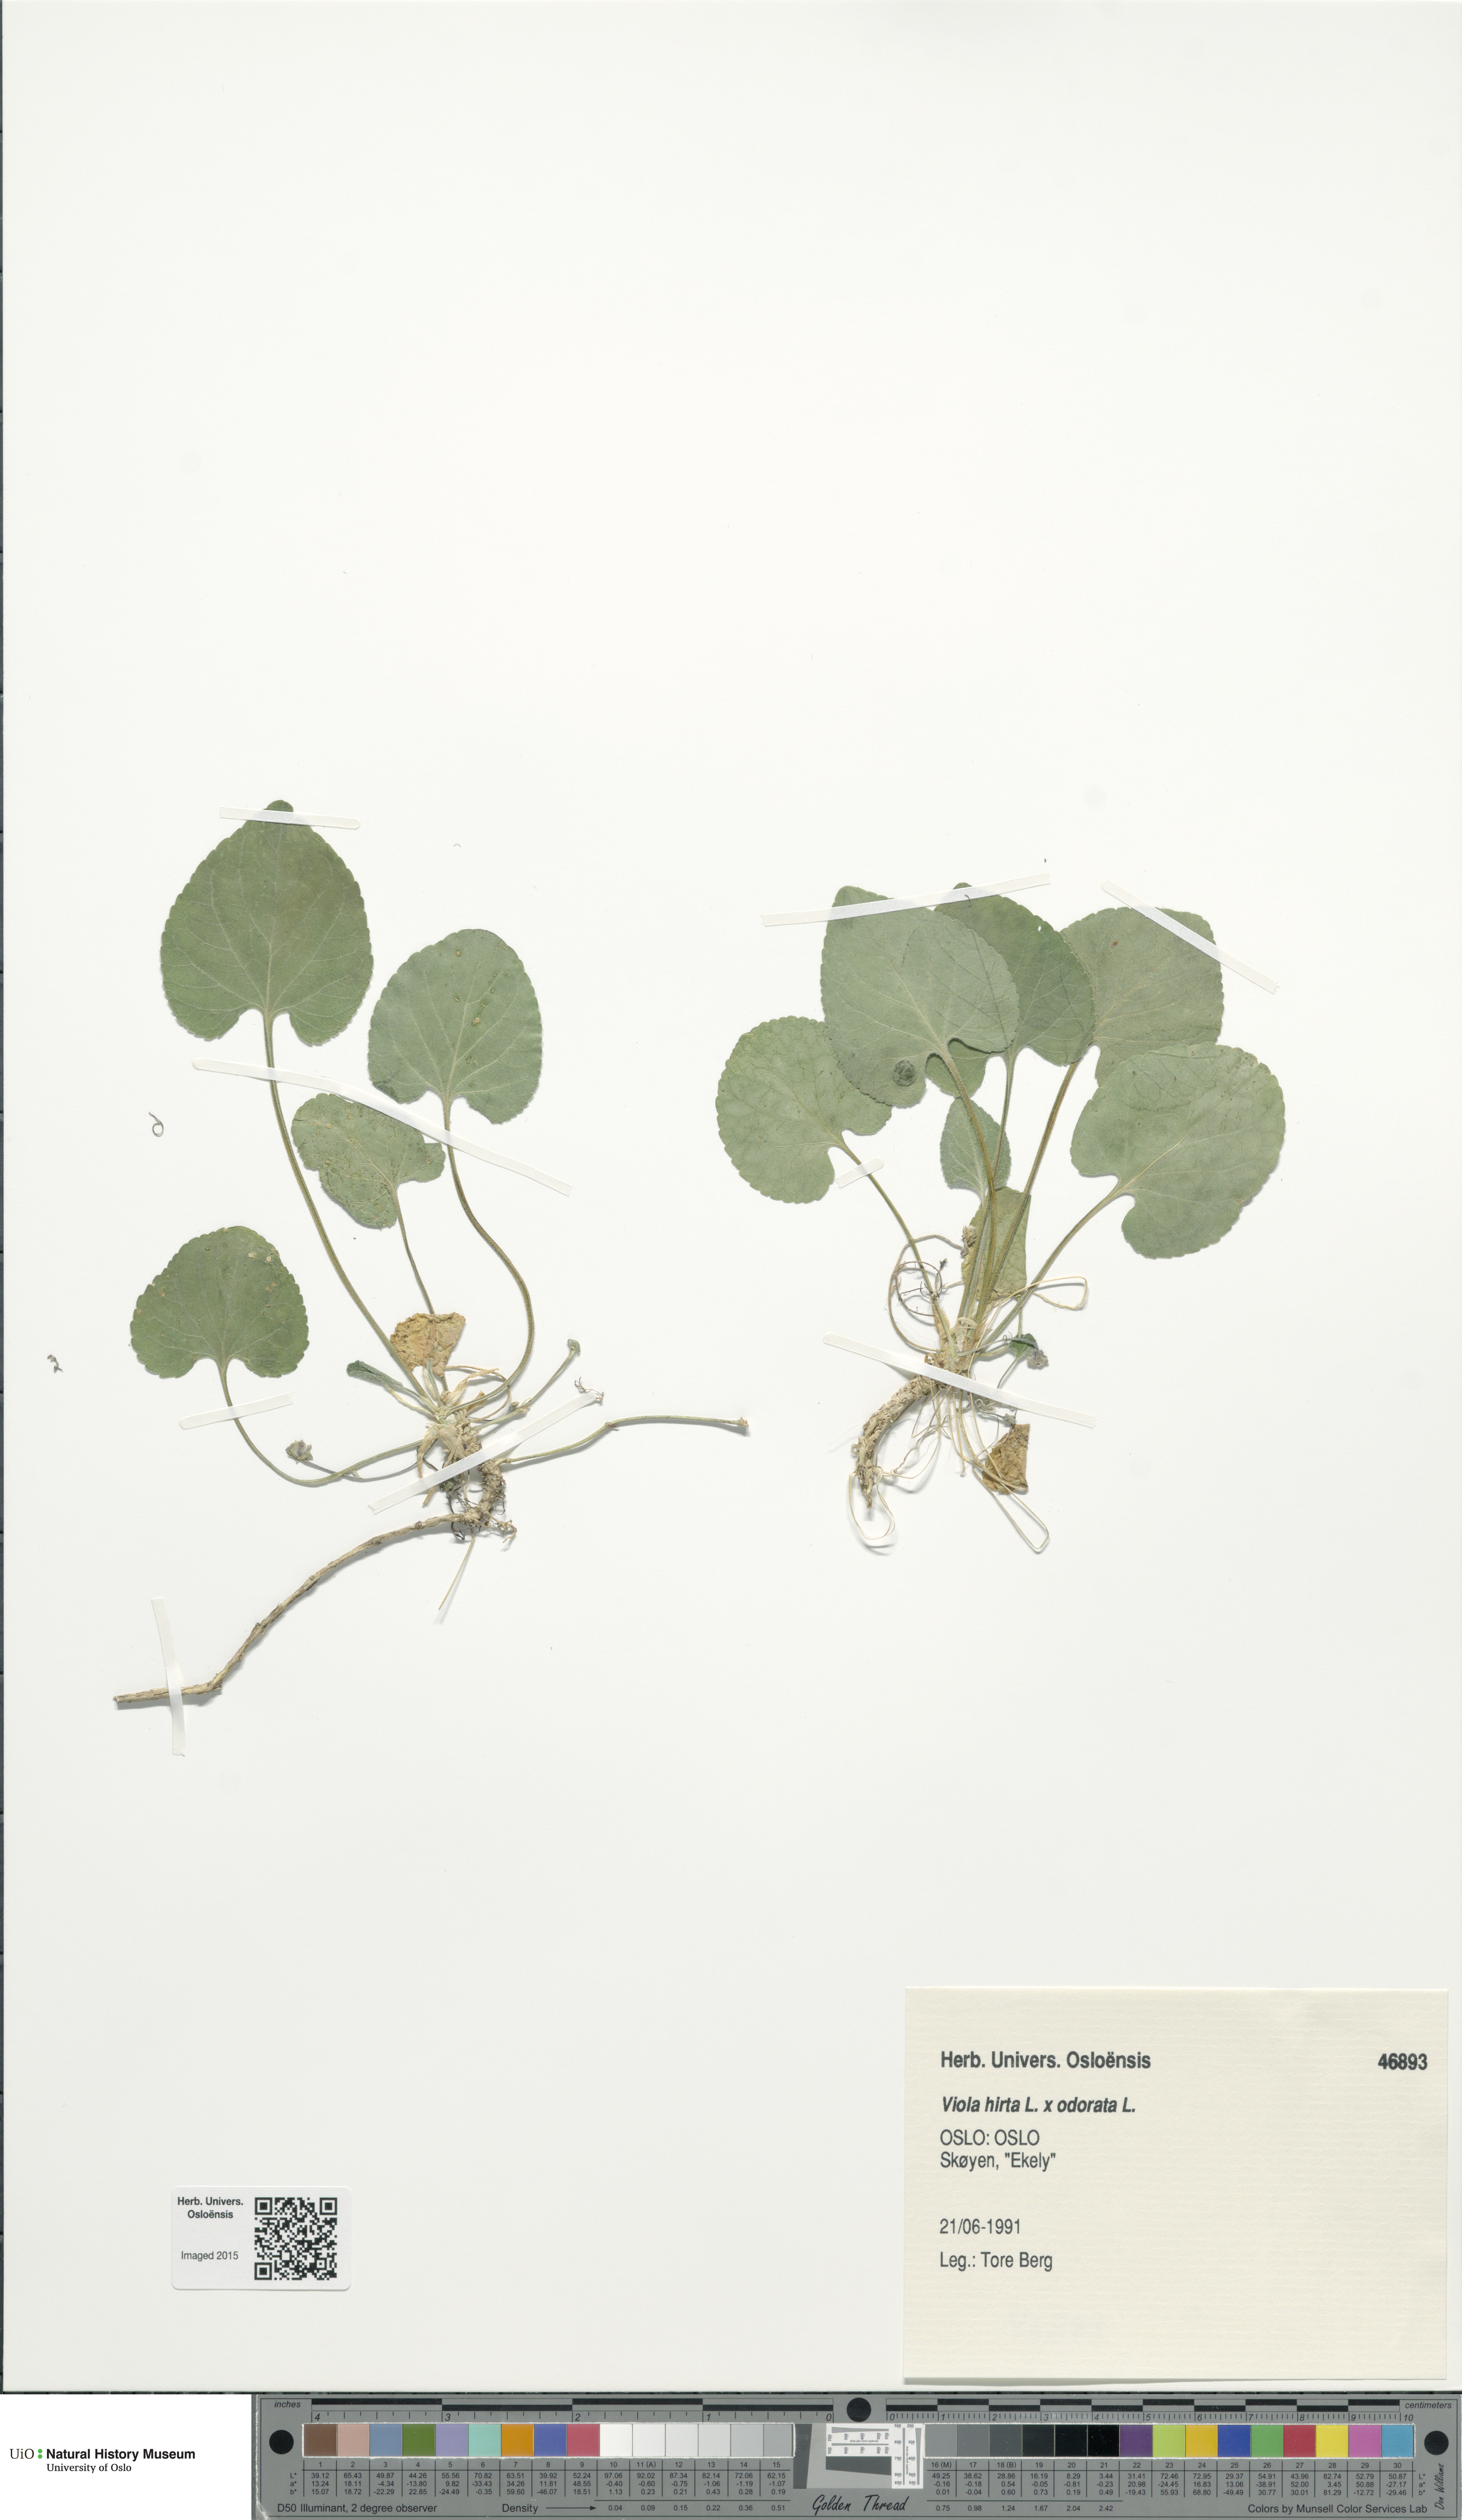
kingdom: Plantae
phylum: Tracheophyta
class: Magnoliopsida
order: Malpighiales
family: Violaceae
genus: Viola
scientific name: Viola
